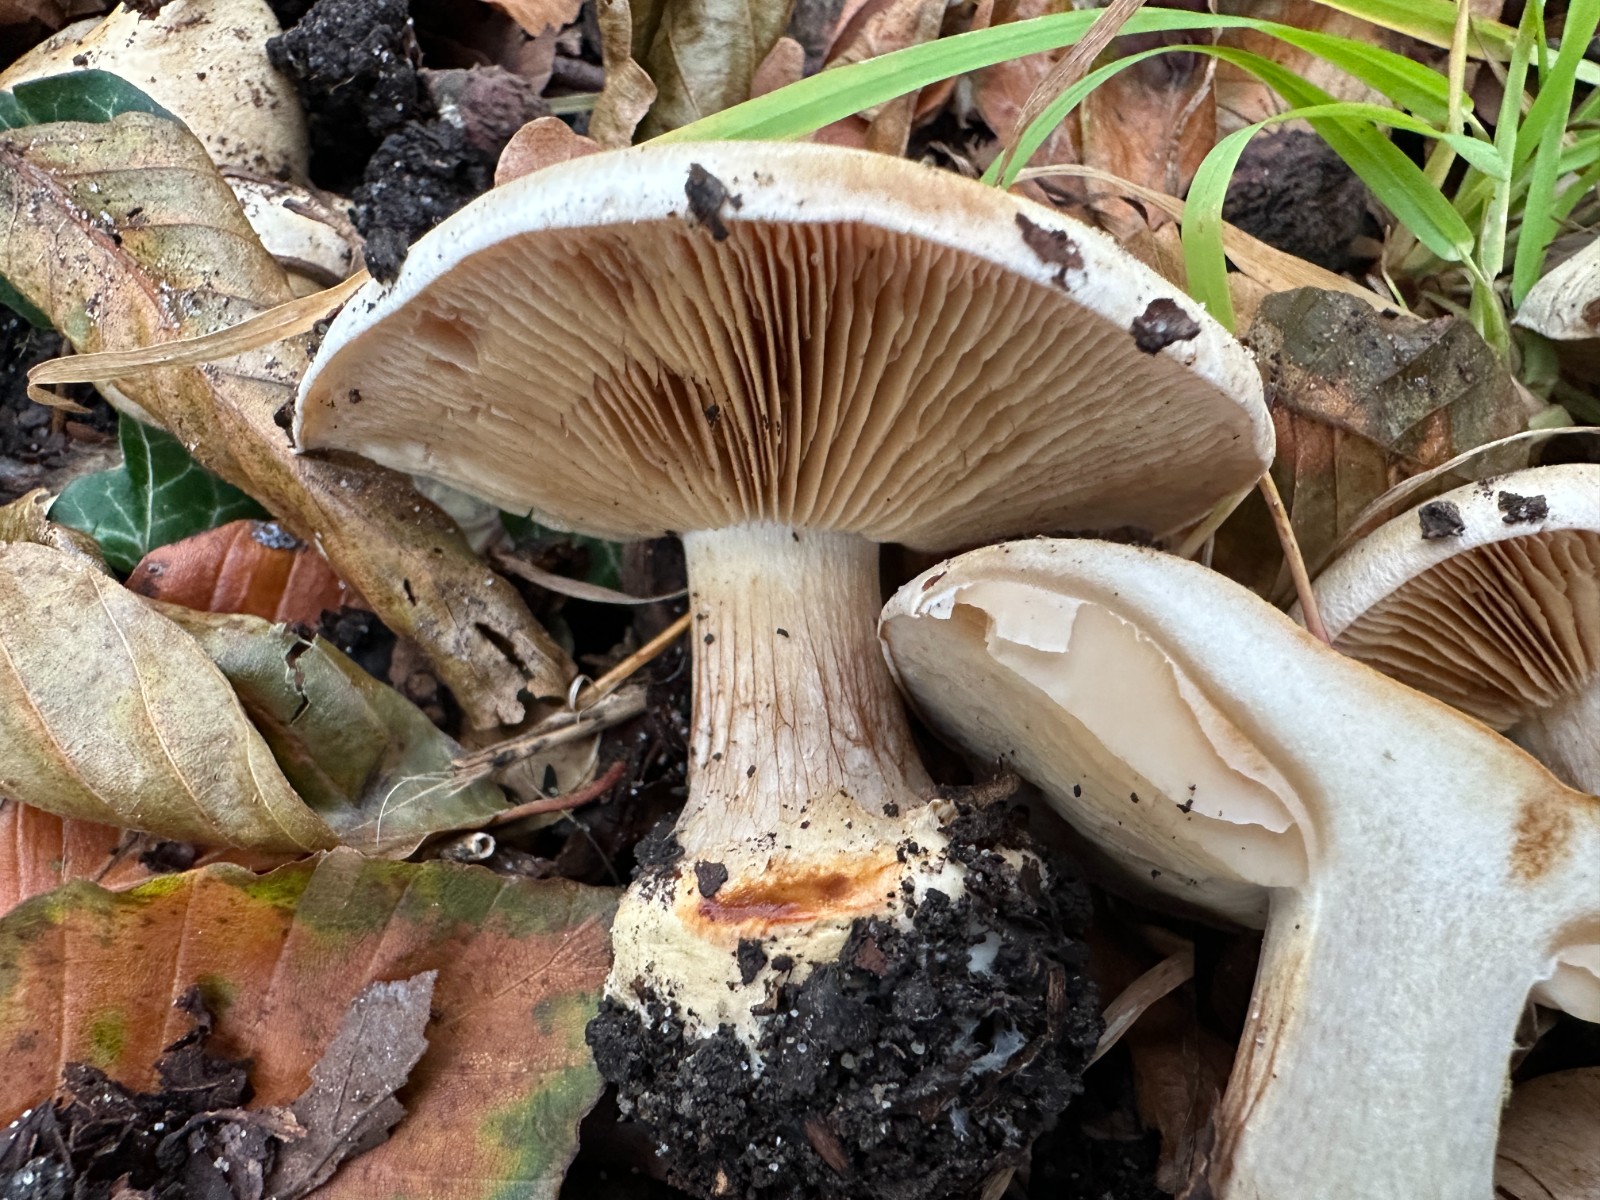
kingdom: Fungi
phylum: Basidiomycota
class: Agaricomycetes
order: Agaricales
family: Cortinariaceae
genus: Cortinarius
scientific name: Cortinarius foetens
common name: stribet slørhat
